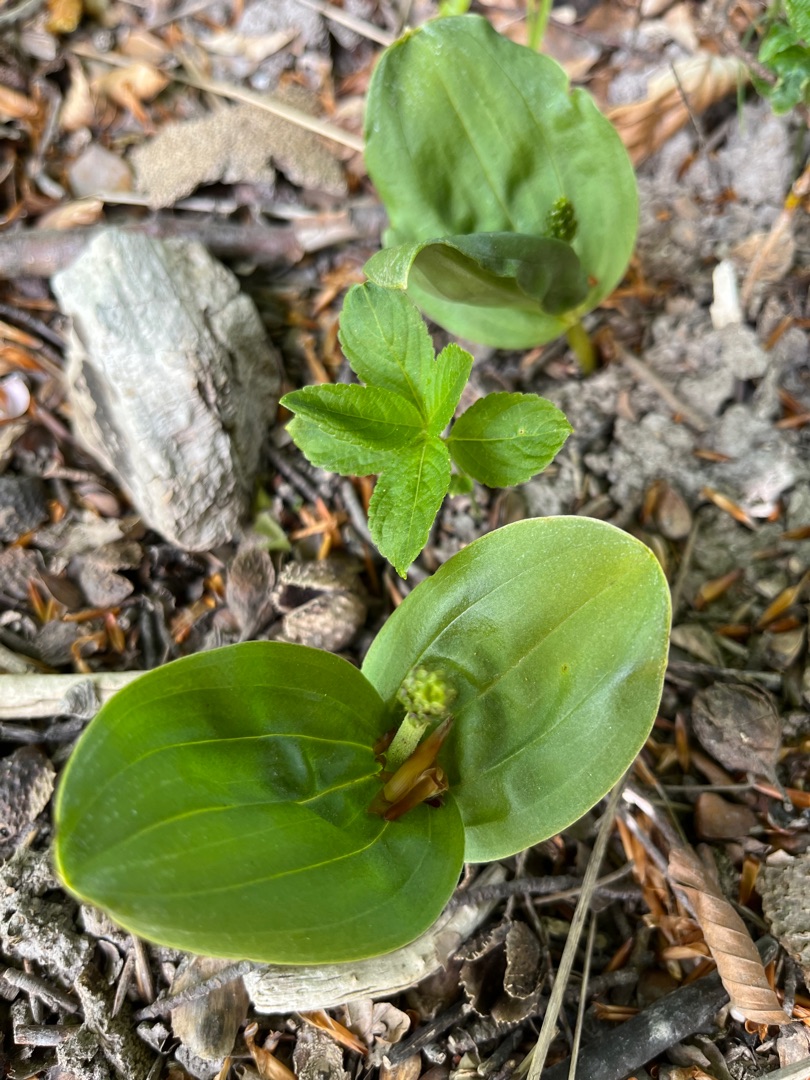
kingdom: Plantae
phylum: Tracheophyta
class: Liliopsida
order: Asparagales
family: Orchidaceae
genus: Neottia
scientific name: Neottia ovata
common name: Ægbladet fliglæbe
